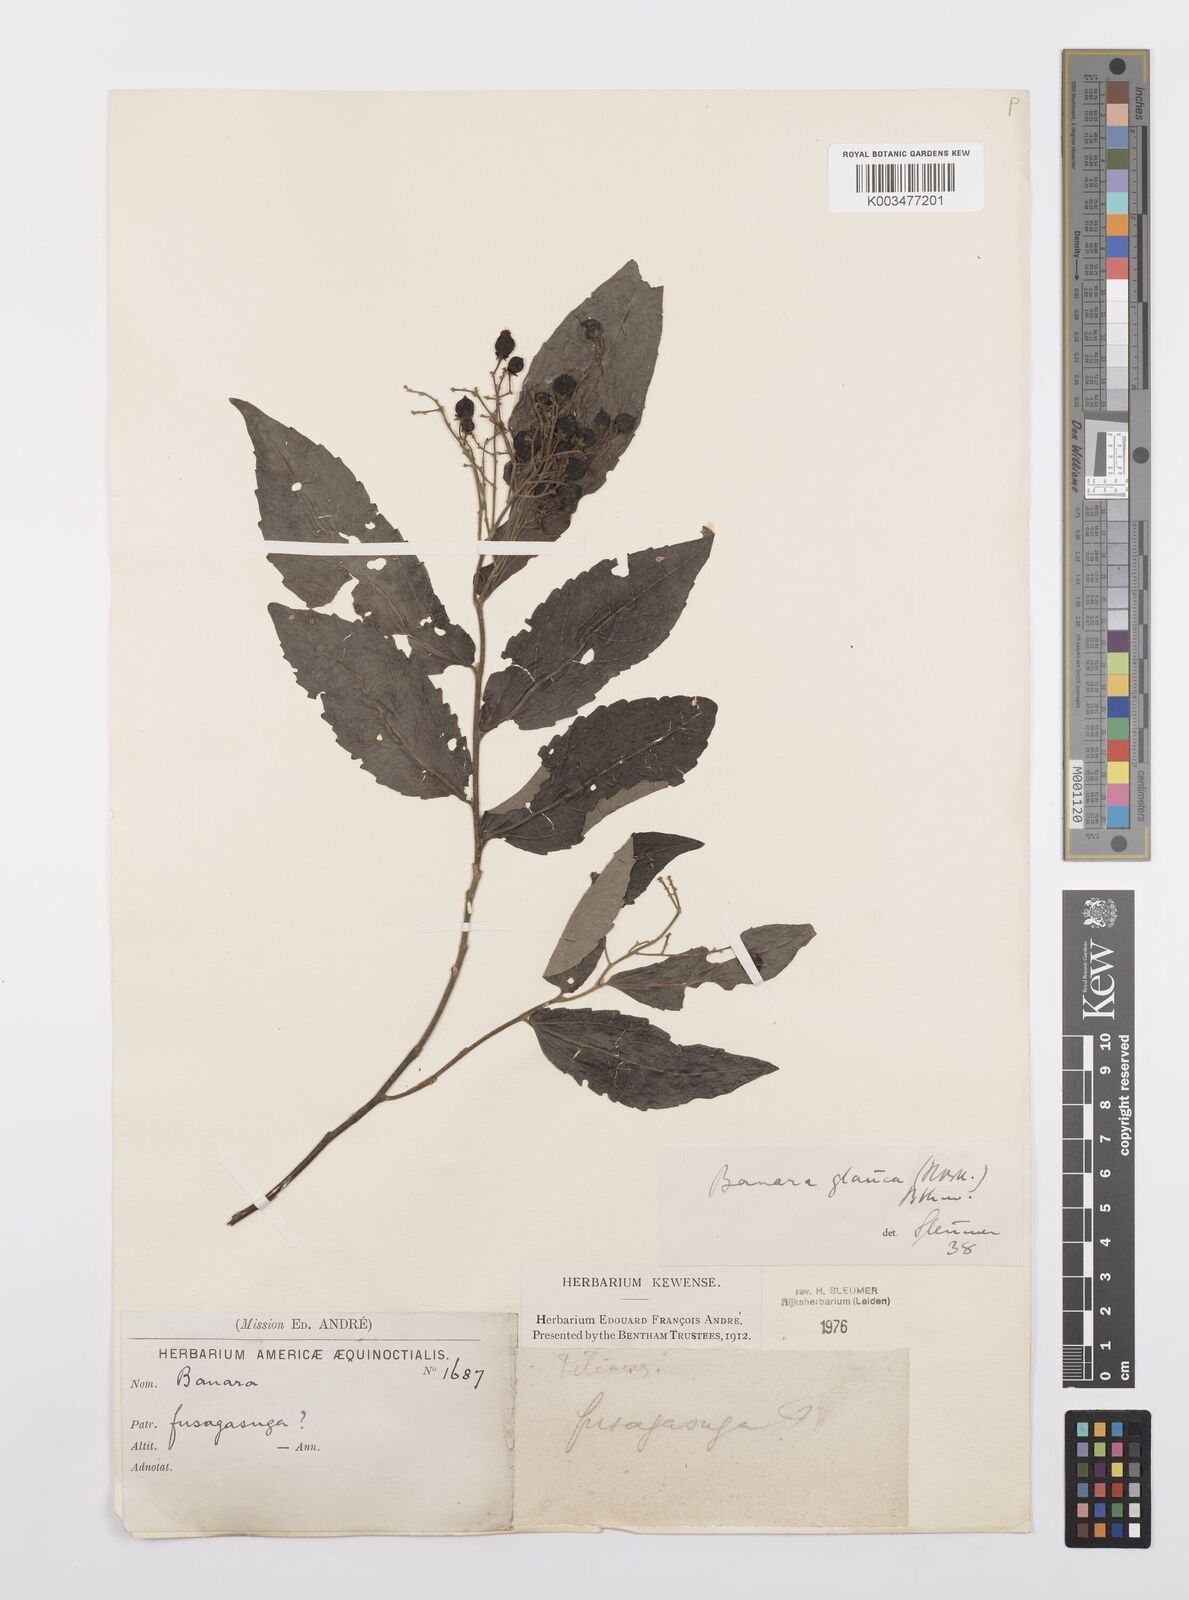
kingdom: Plantae
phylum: Tracheophyta
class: Magnoliopsida
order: Malpighiales
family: Salicaceae
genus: Banara
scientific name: Banara glauca
